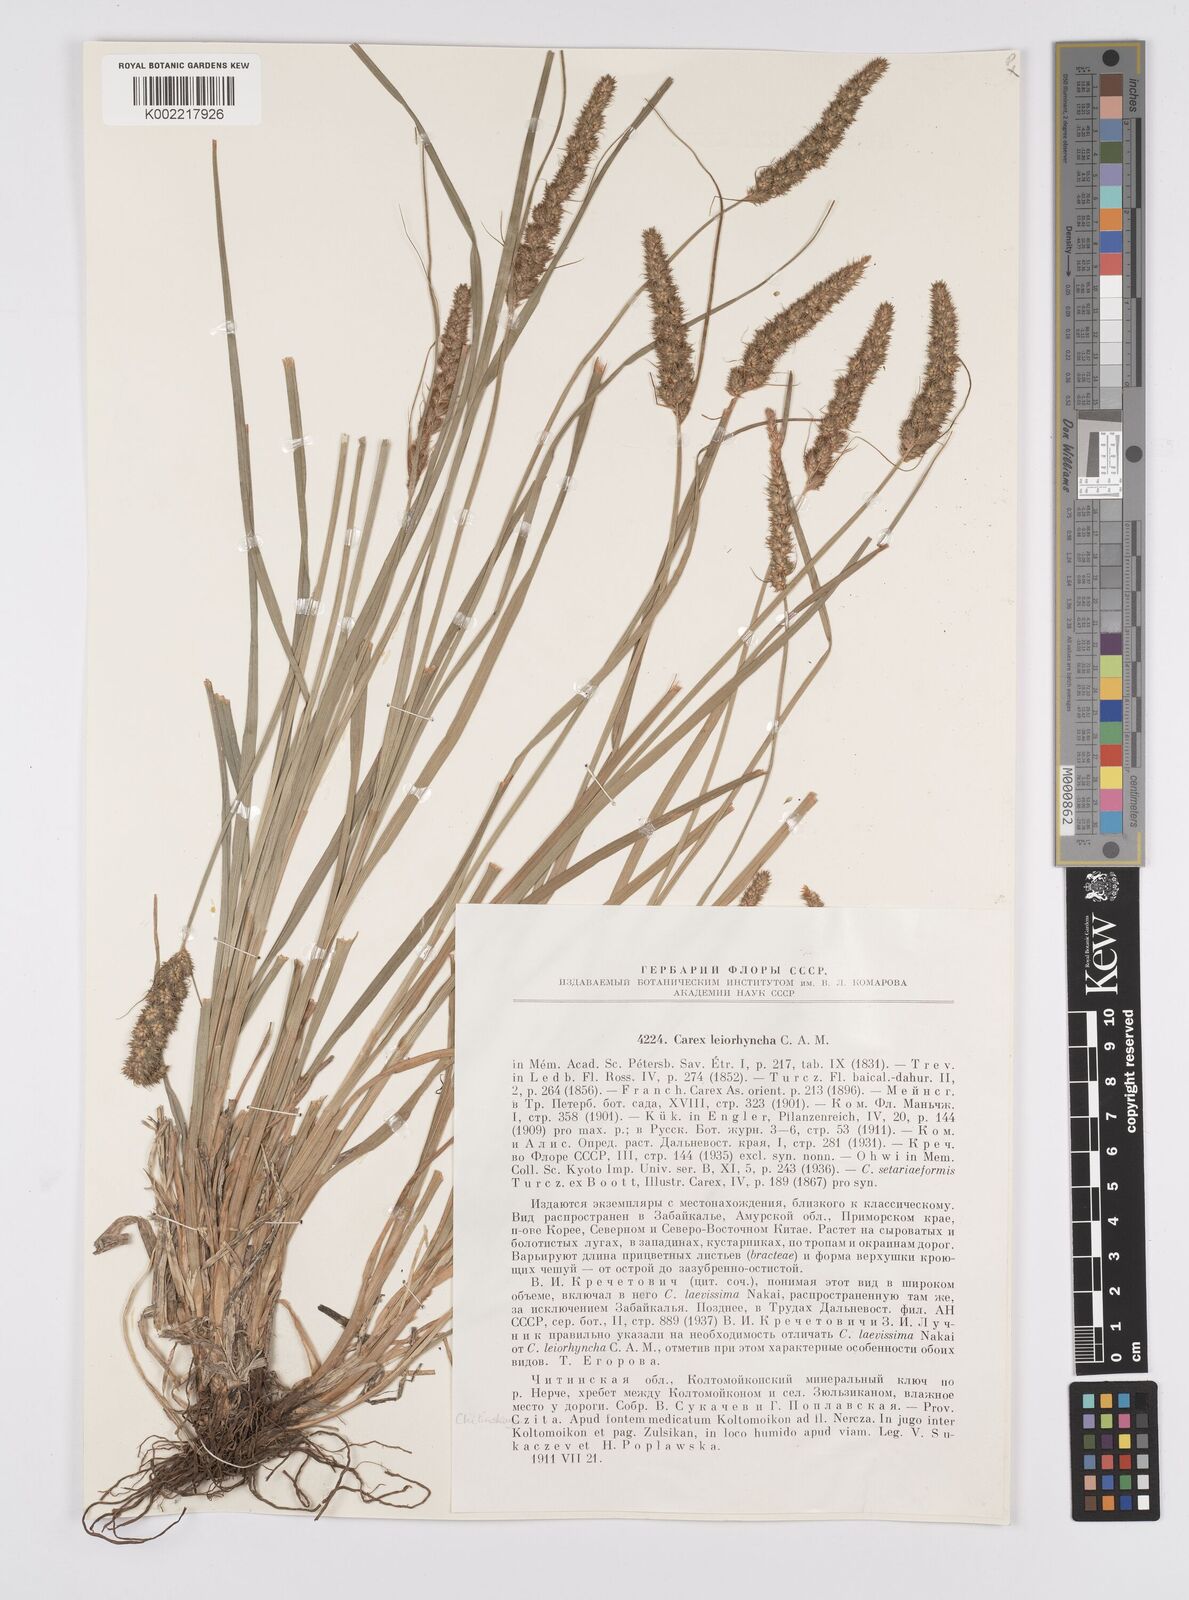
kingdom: Plantae
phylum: Tracheophyta
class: Liliopsida
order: Poales
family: Cyperaceae
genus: Carex
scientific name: Carex leiorhyncha
